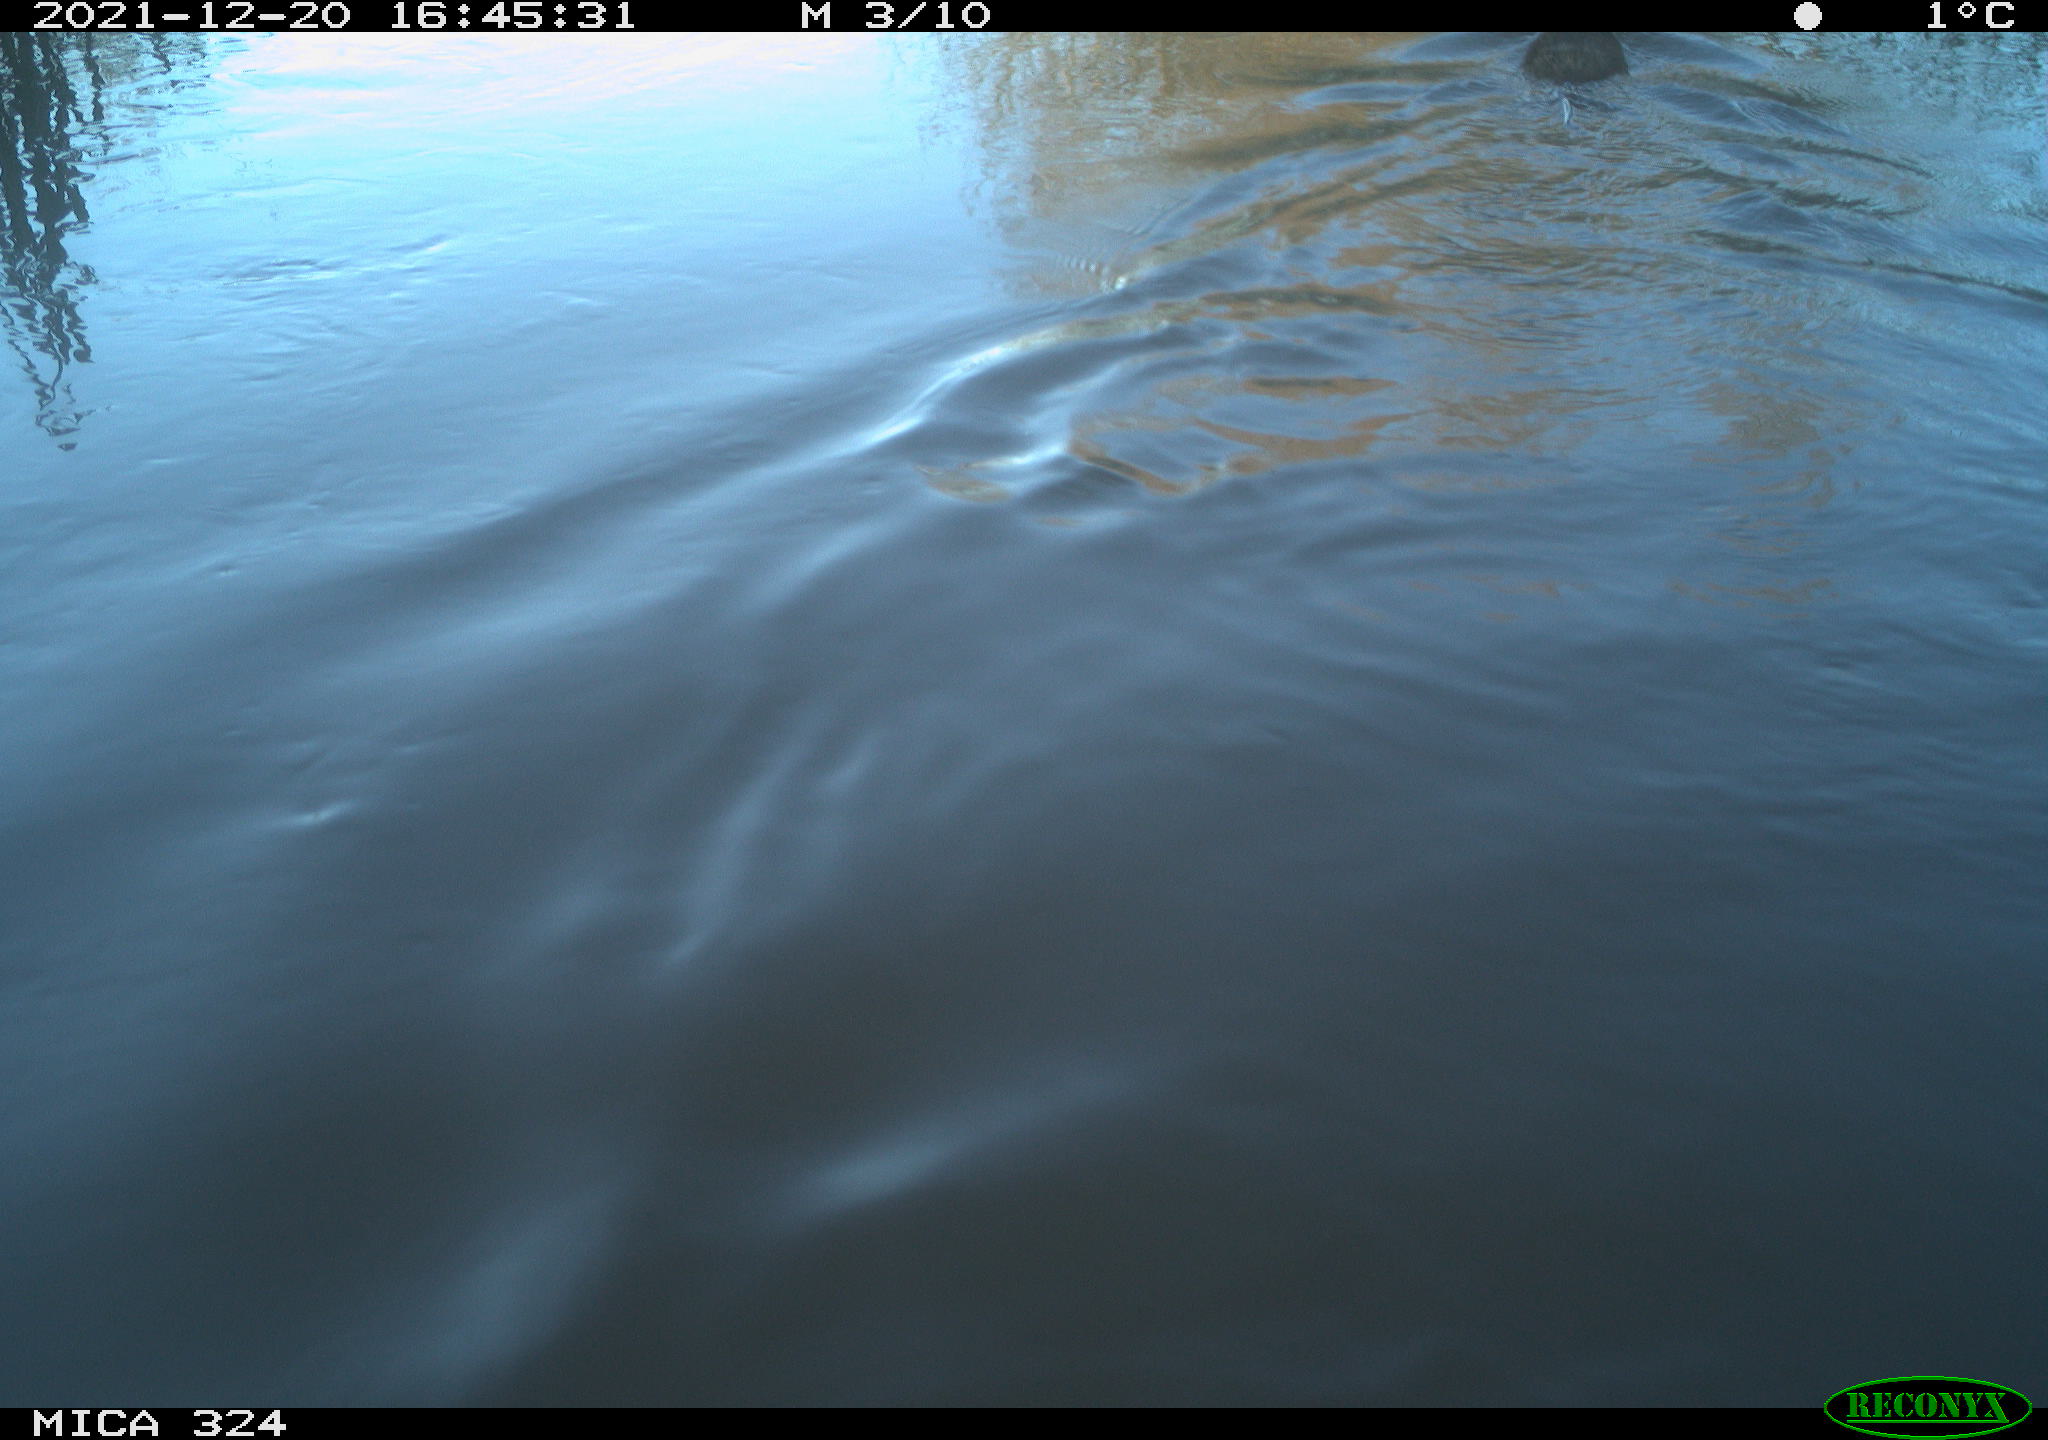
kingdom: Animalia
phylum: Chordata
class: Mammalia
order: Rodentia
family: Cricetidae
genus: Ondatra
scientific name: Ondatra zibethicus
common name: Muskrat
